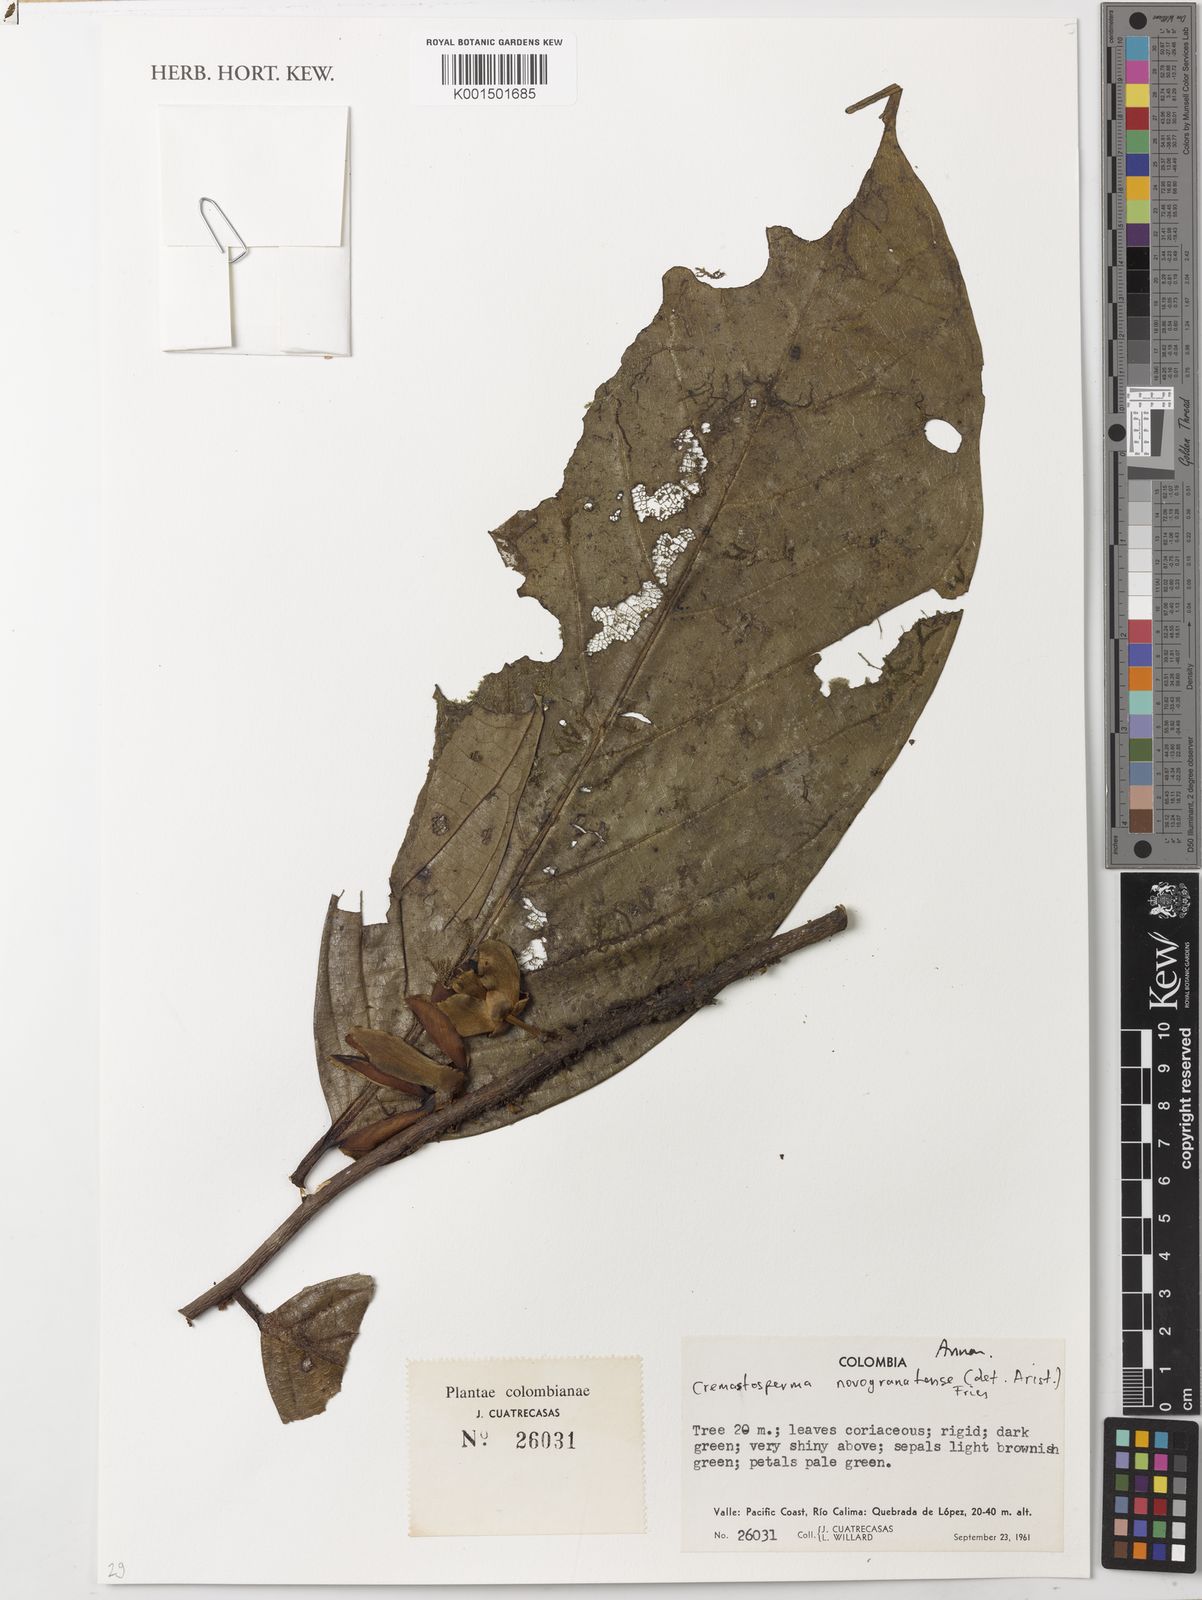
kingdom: Plantae
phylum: Tracheophyta
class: Magnoliopsida
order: Magnoliales
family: Annonaceae
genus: Cremastosperma
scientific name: Cremastosperma novogranatense
